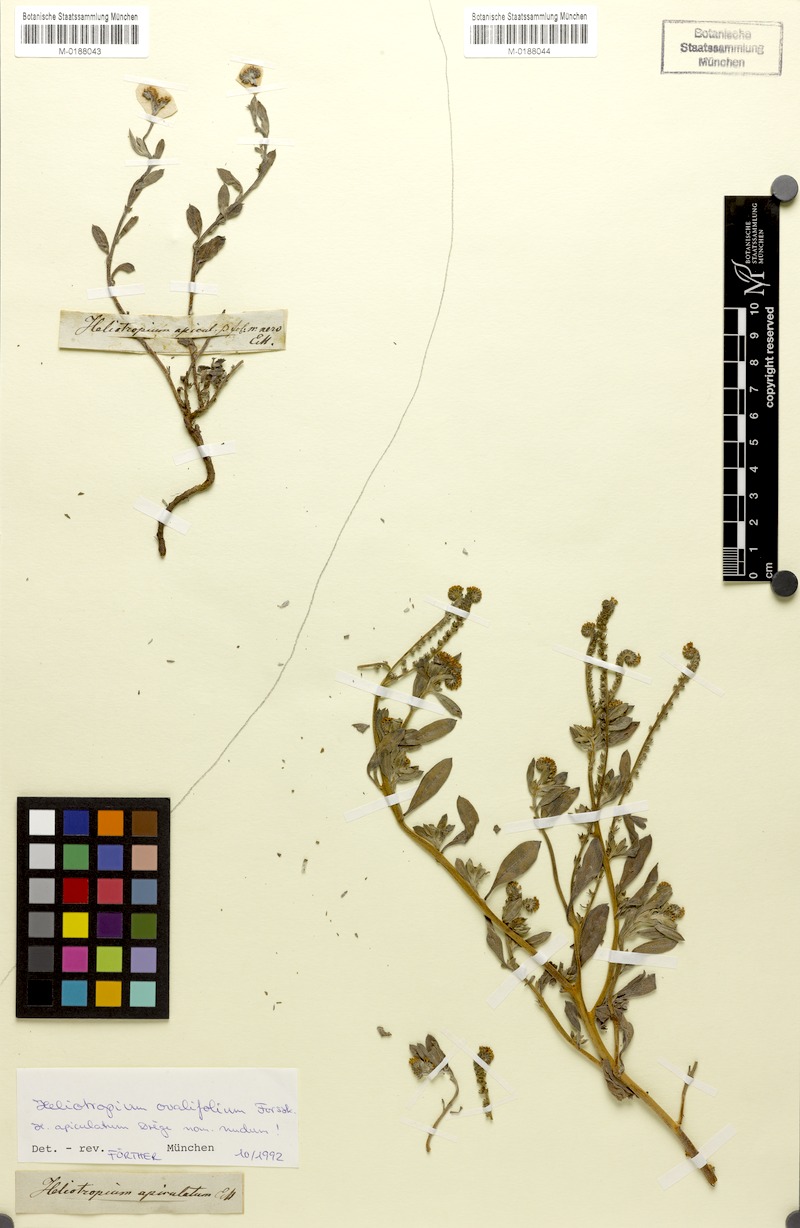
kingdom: Plantae
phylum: Tracheophyta
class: Magnoliopsida
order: Boraginales
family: Heliotropiaceae
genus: Euploca
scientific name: Euploca ovalifolia
